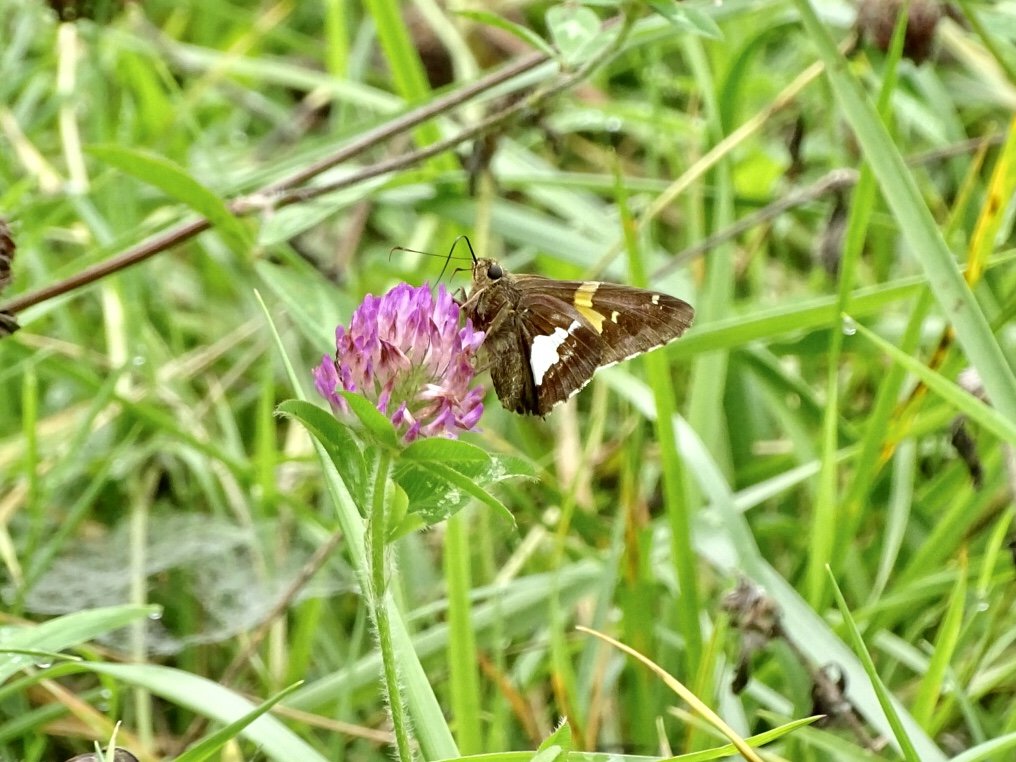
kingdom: Animalia
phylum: Arthropoda
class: Insecta
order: Lepidoptera
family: Hesperiidae
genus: Epargyreus
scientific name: Epargyreus clarus
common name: Silver-spotted Skipper
